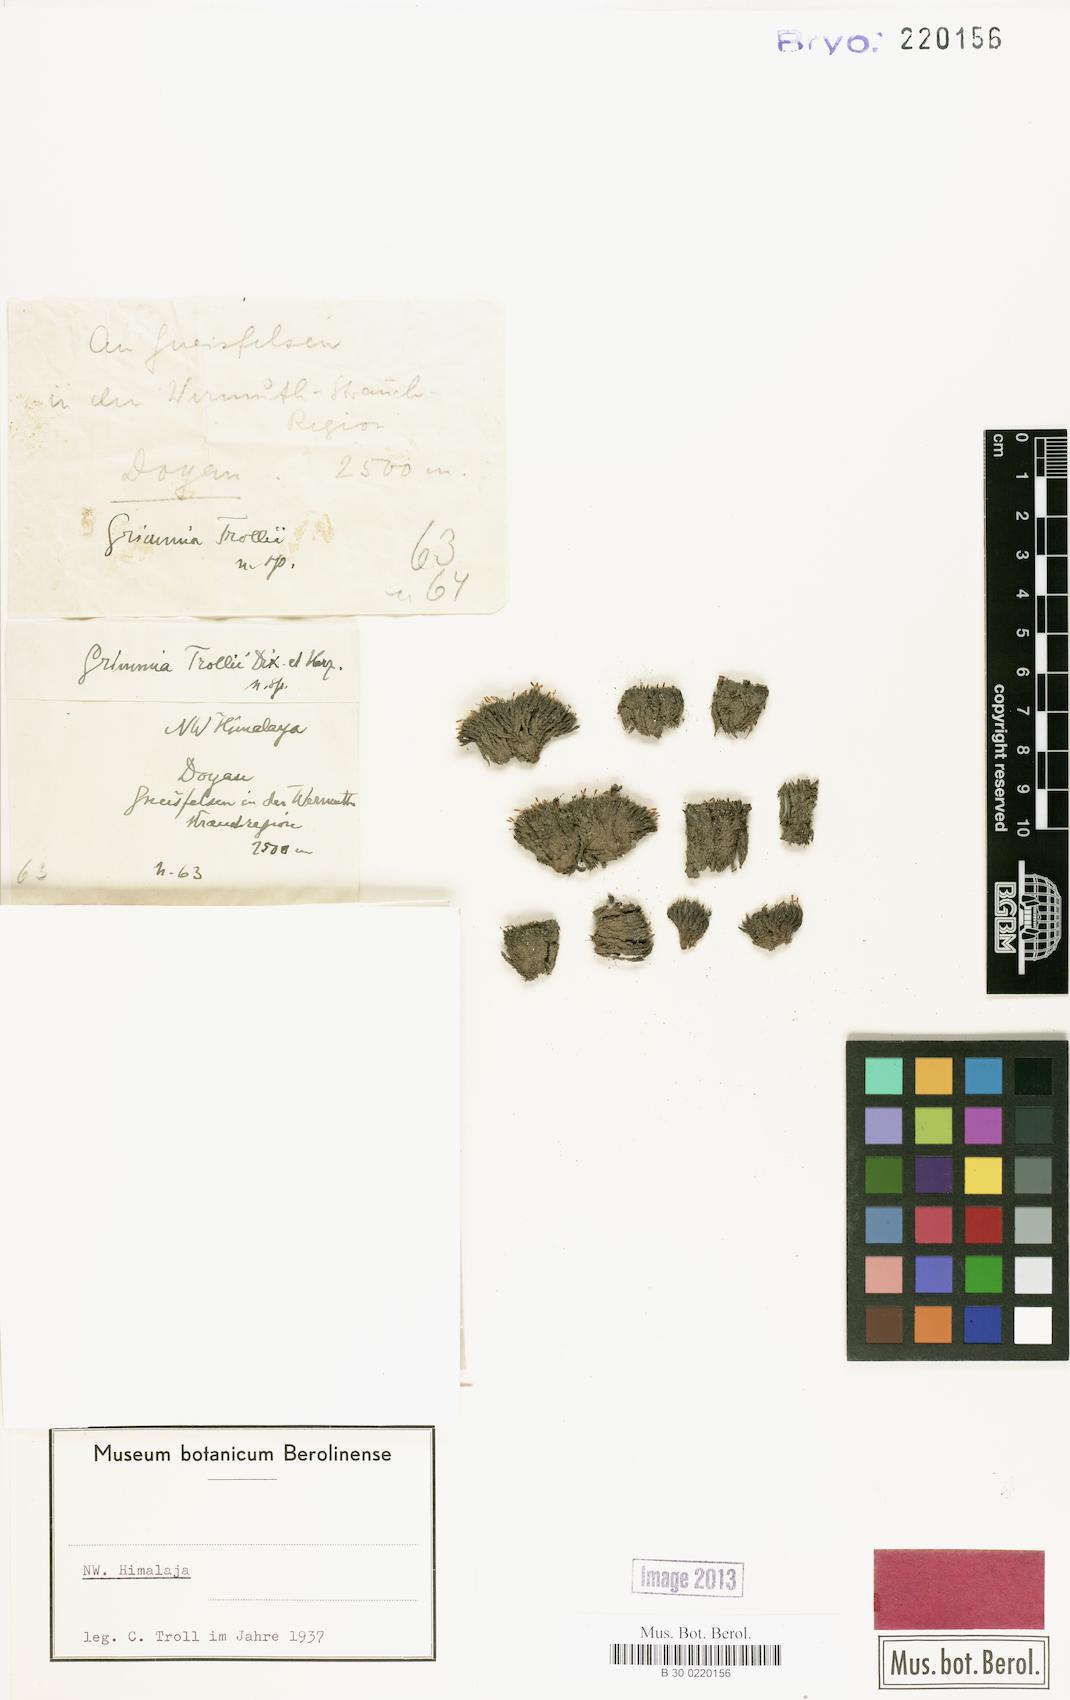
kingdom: Plantae
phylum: Bryophyta
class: Bryopsida
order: Grimmiales
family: Grimmiaceae
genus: Grimmia
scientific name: Grimmia herzogii
